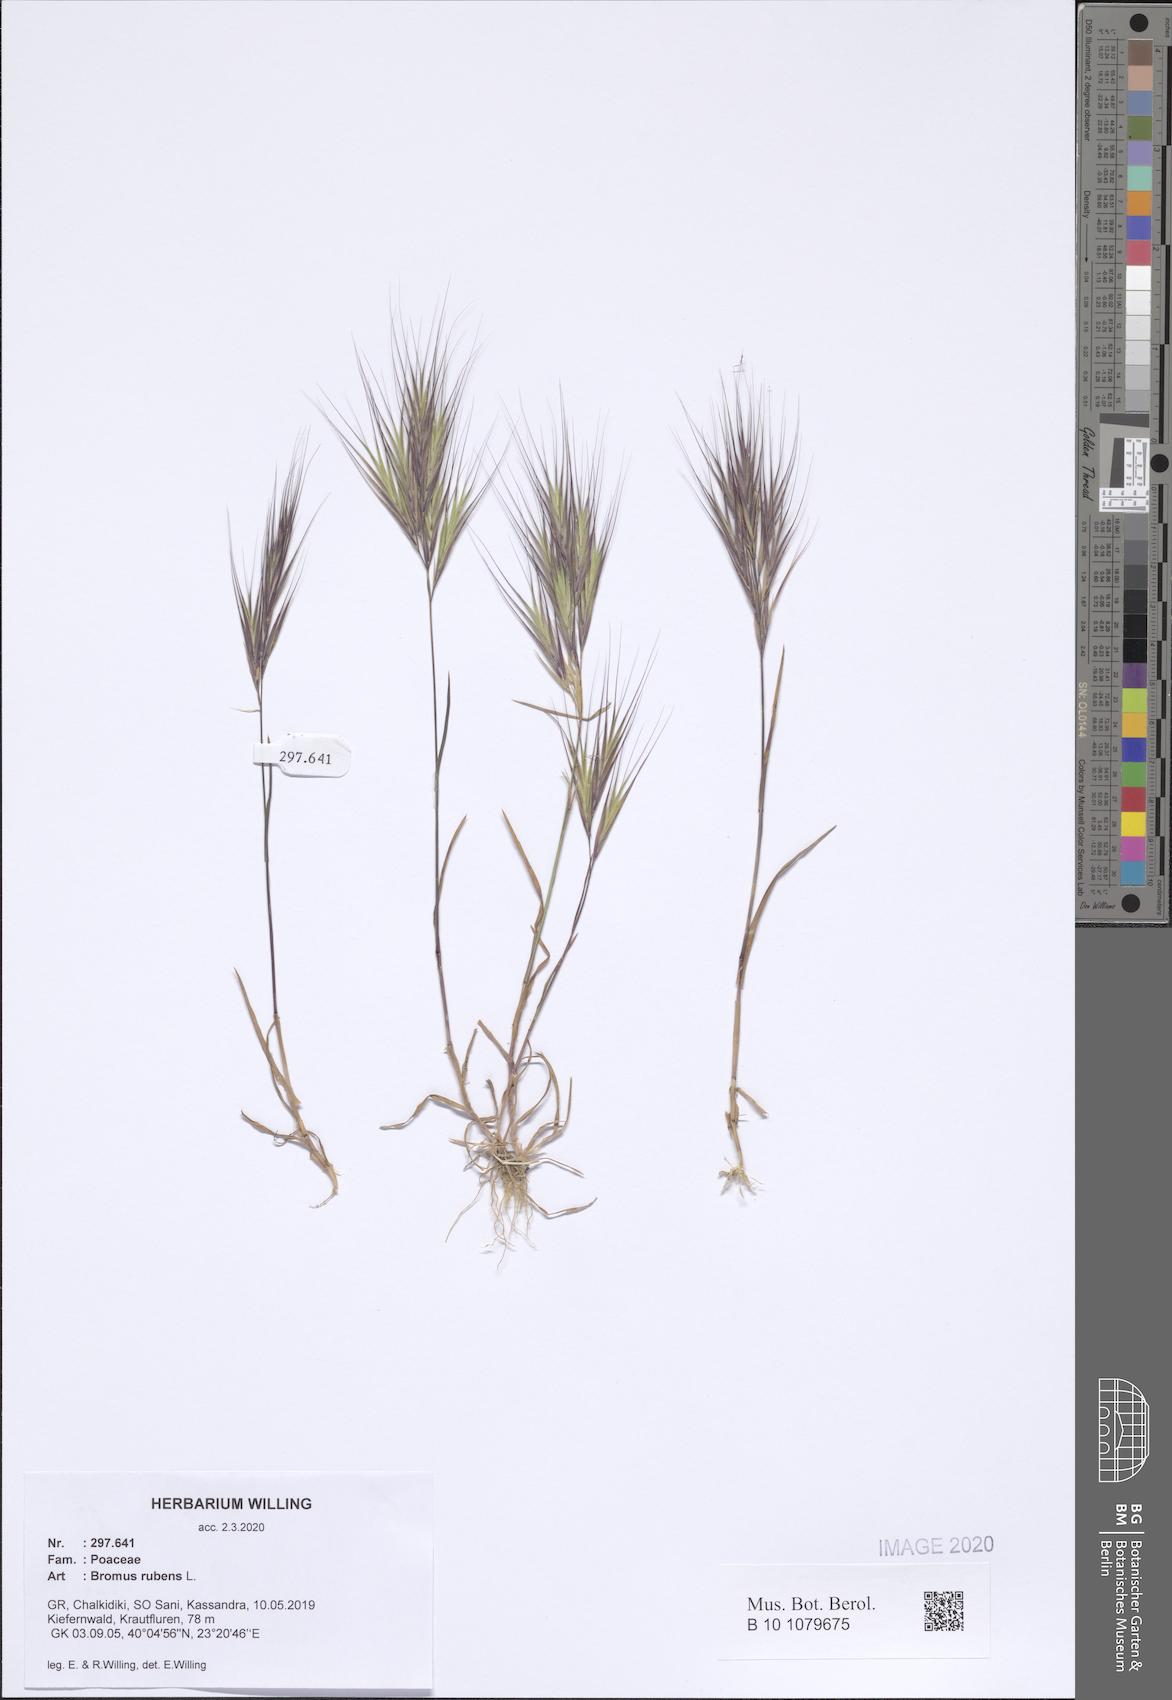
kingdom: Plantae
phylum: Tracheophyta
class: Liliopsida
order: Poales
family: Poaceae
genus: Bromus
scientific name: Bromus rubens
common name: Red brome
